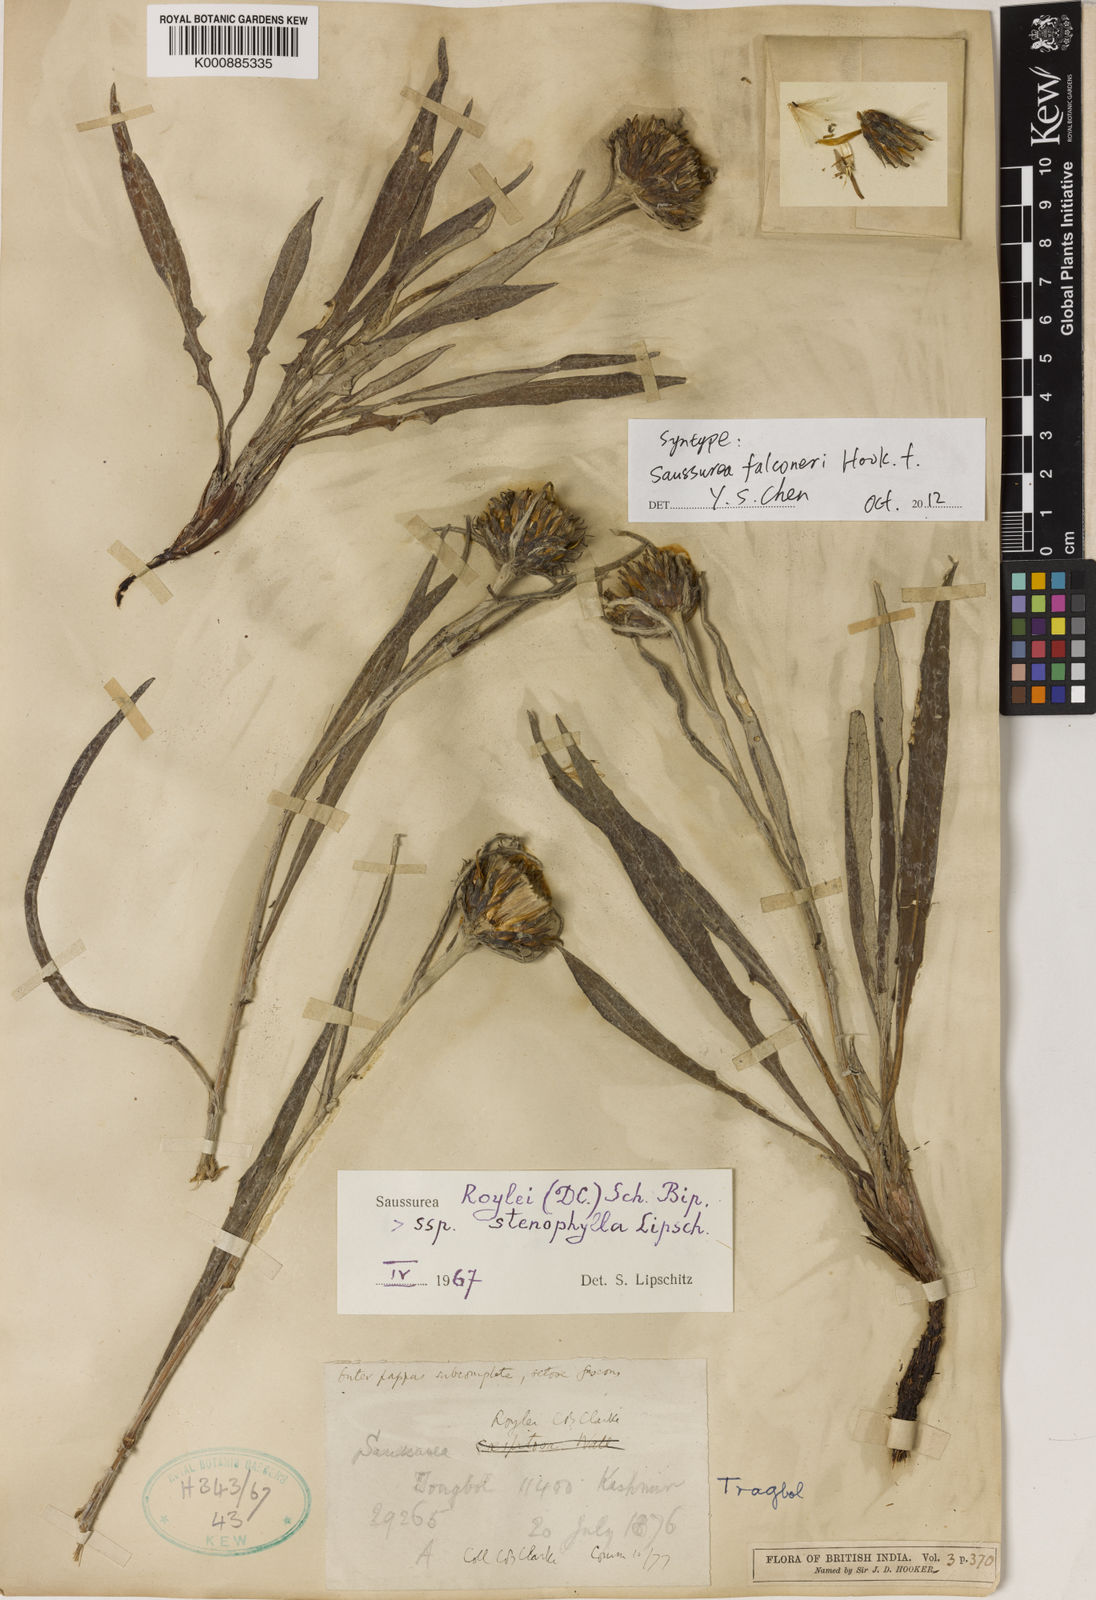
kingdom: Plantae
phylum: Tracheophyta
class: Magnoliopsida
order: Asterales
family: Asteraceae
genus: Saussurea
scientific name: Saussurea devendrae
